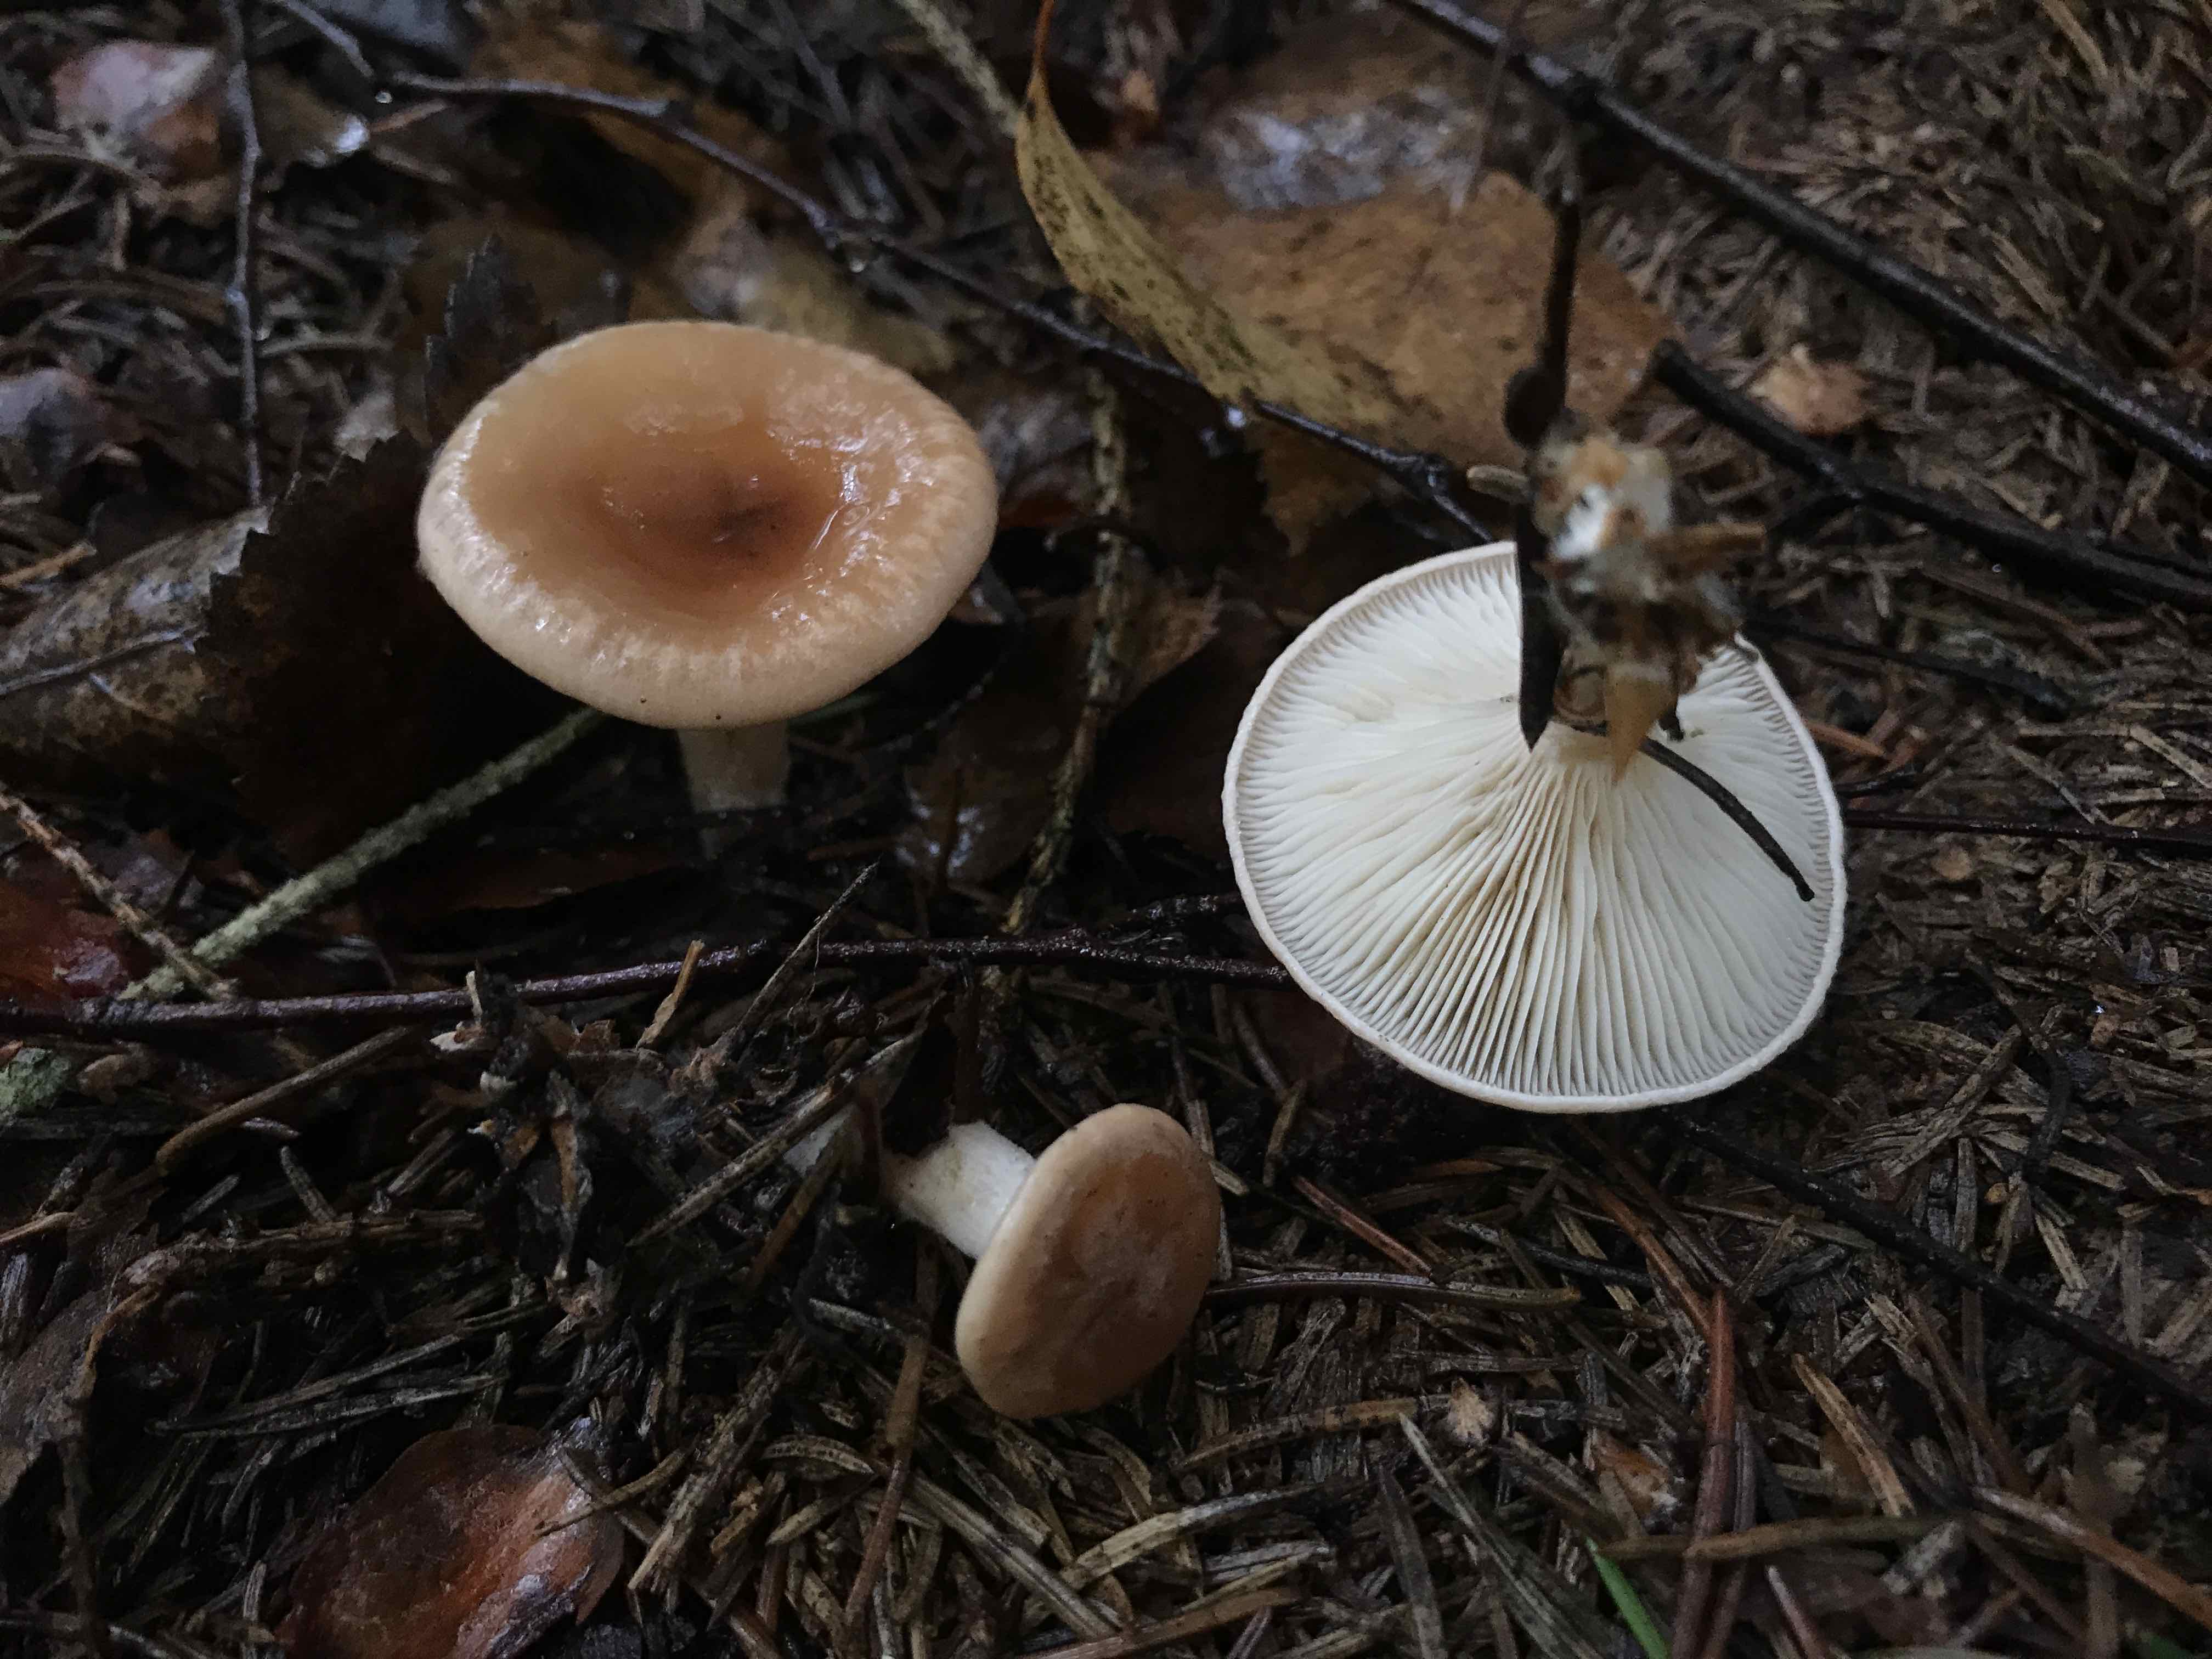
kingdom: Fungi
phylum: Basidiomycota
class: Agaricomycetes
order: Agaricales
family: Tricholomataceae
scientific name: Tricholomataceae
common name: ridderhatfamilien
